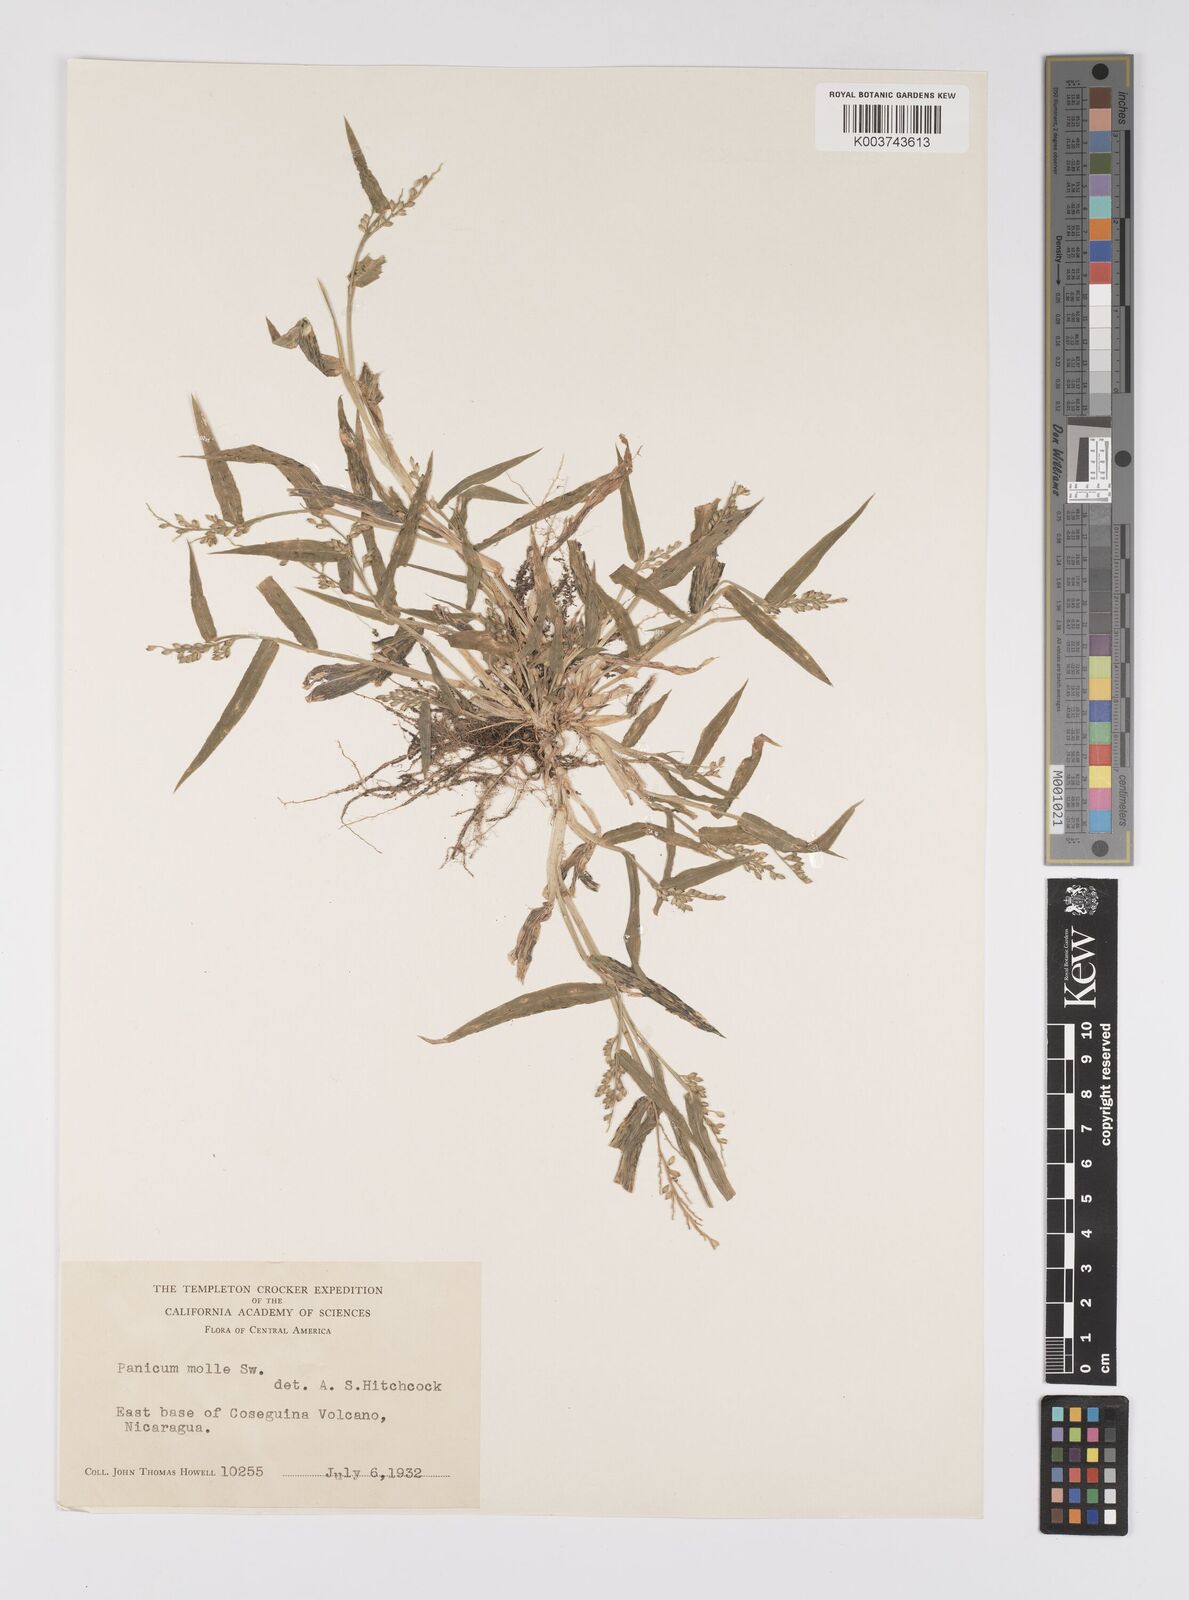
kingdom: Plantae
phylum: Tracheophyta
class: Liliopsida
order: Poales
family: Poaceae
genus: Urochloa
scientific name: Urochloa mollis
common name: Grass
